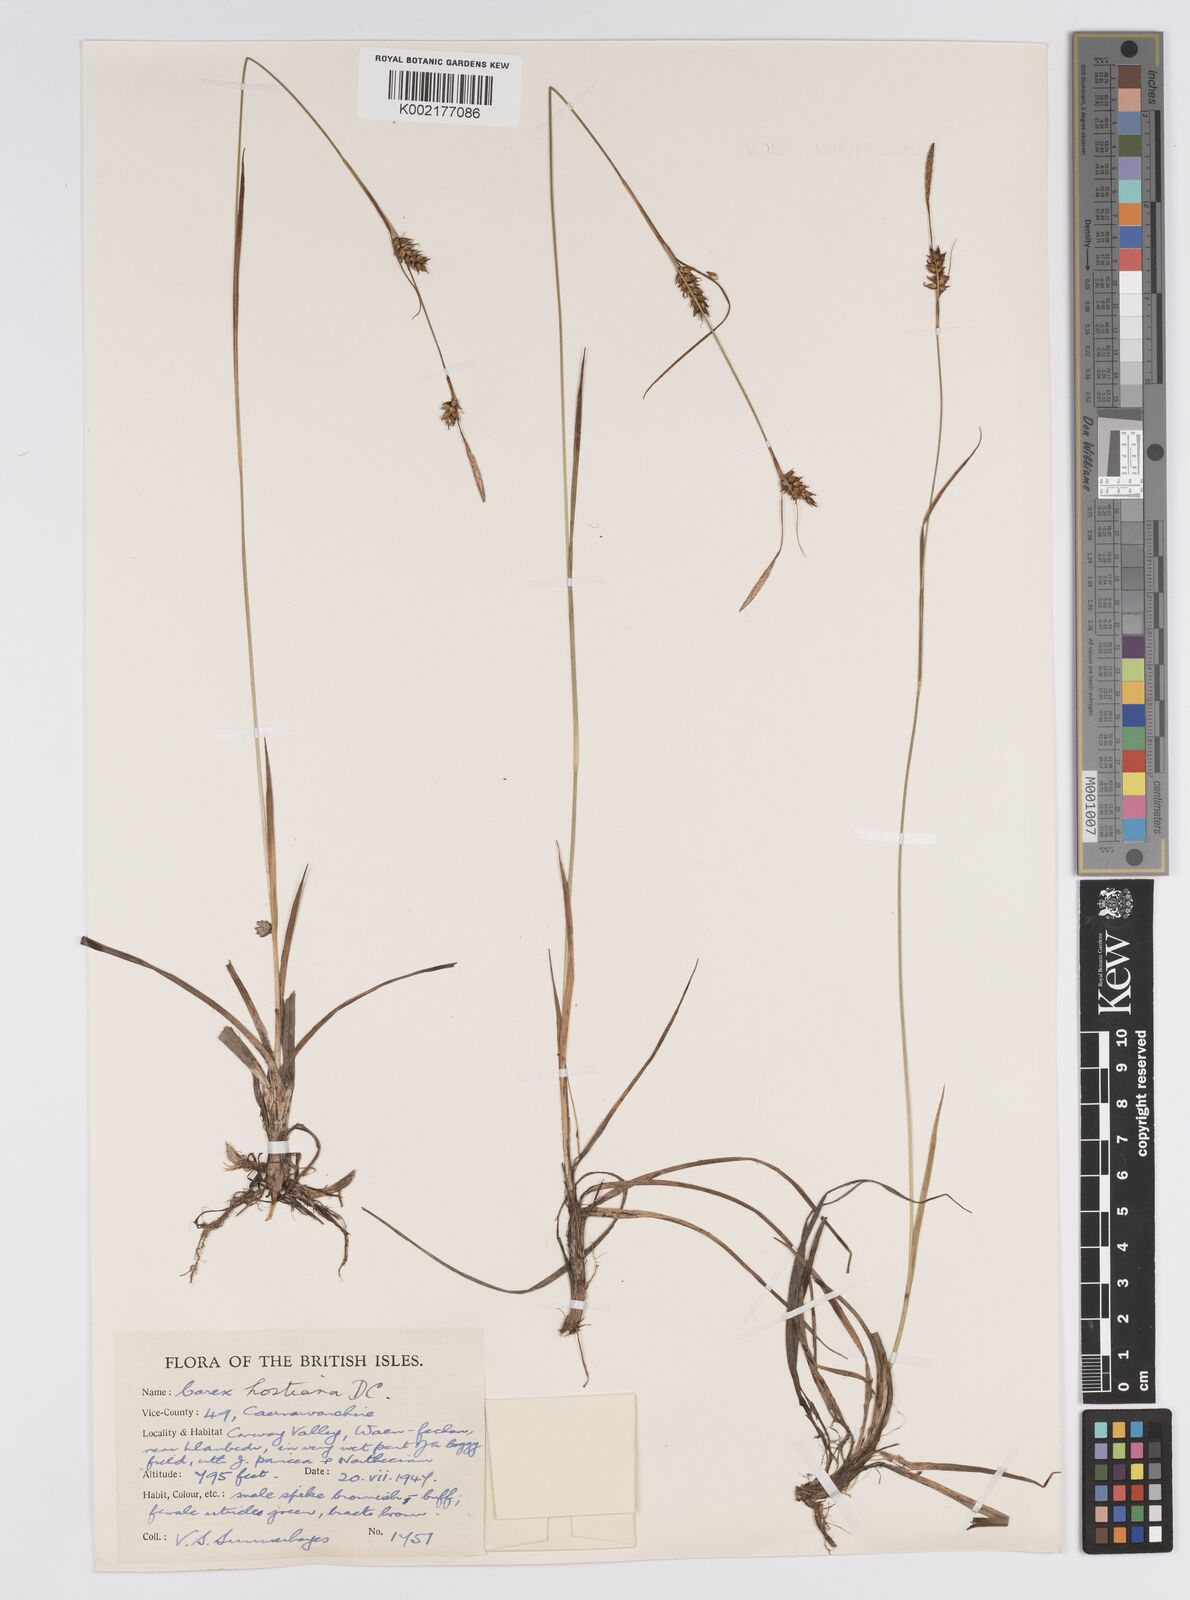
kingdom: Plantae
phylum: Tracheophyta
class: Liliopsida
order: Poales
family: Cyperaceae
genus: Carex
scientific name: Carex hostiana
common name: Tawny sedge
